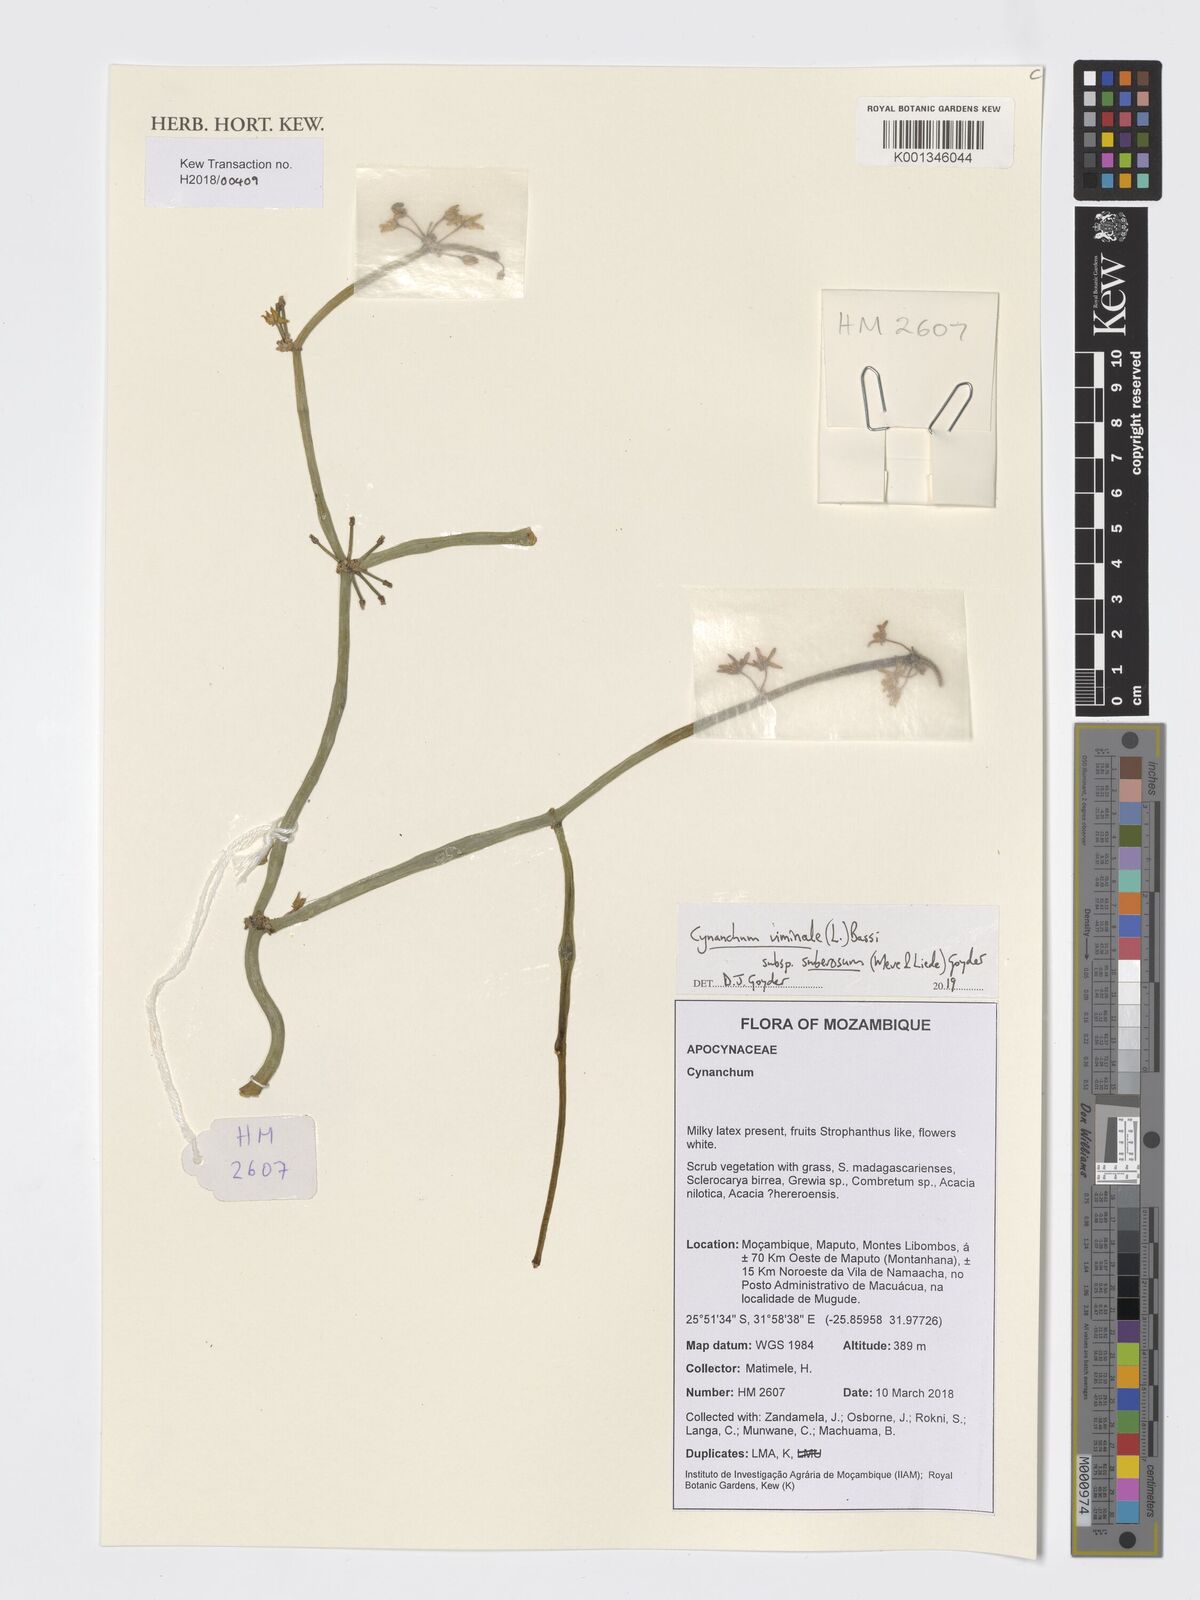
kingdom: Plantae
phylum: Tracheophyta
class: Magnoliopsida
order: Gentianales
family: Apocynaceae
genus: Cynanchum
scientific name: Cynanchum viminale
